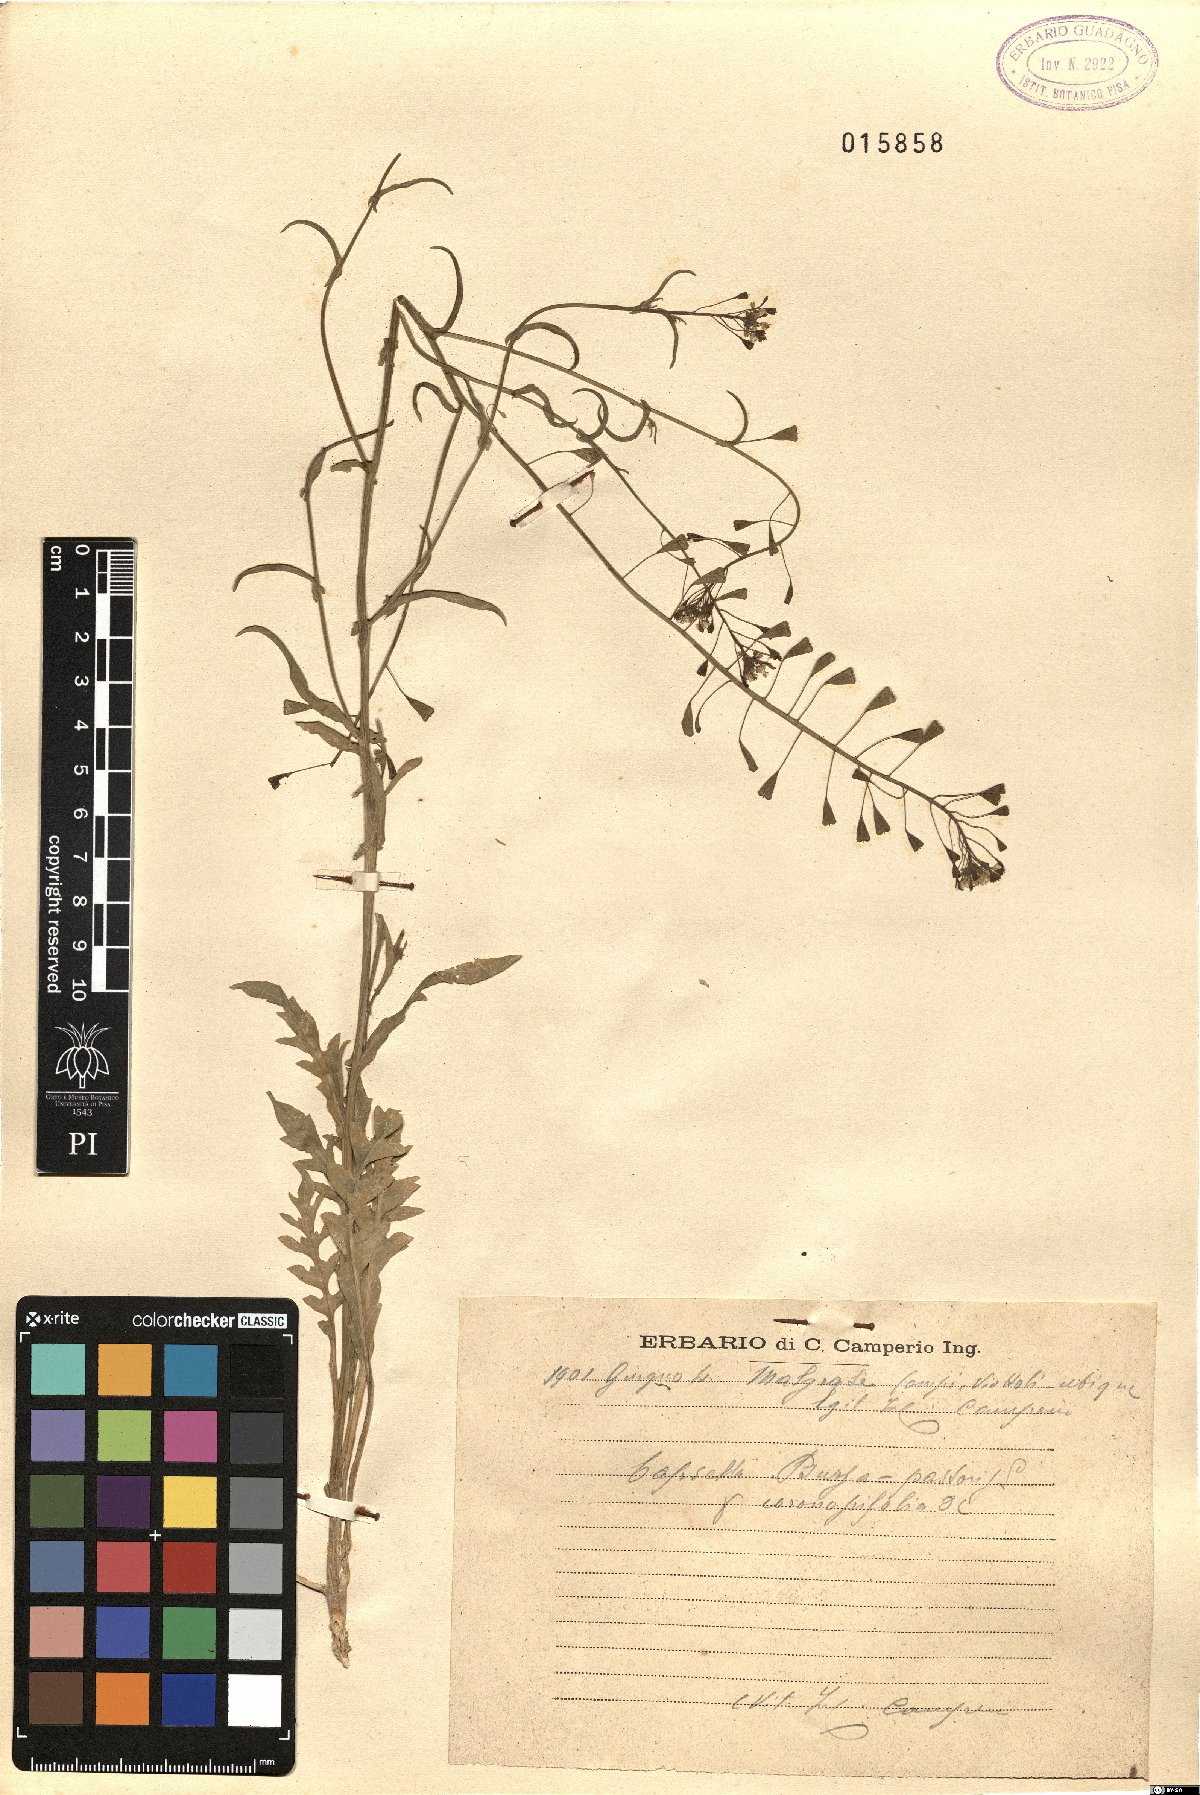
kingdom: Plantae
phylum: Tracheophyta
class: Magnoliopsida
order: Brassicales
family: Brassicaceae
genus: Capsella
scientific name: Capsella bursa-pastoris
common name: Shepherd's purse
